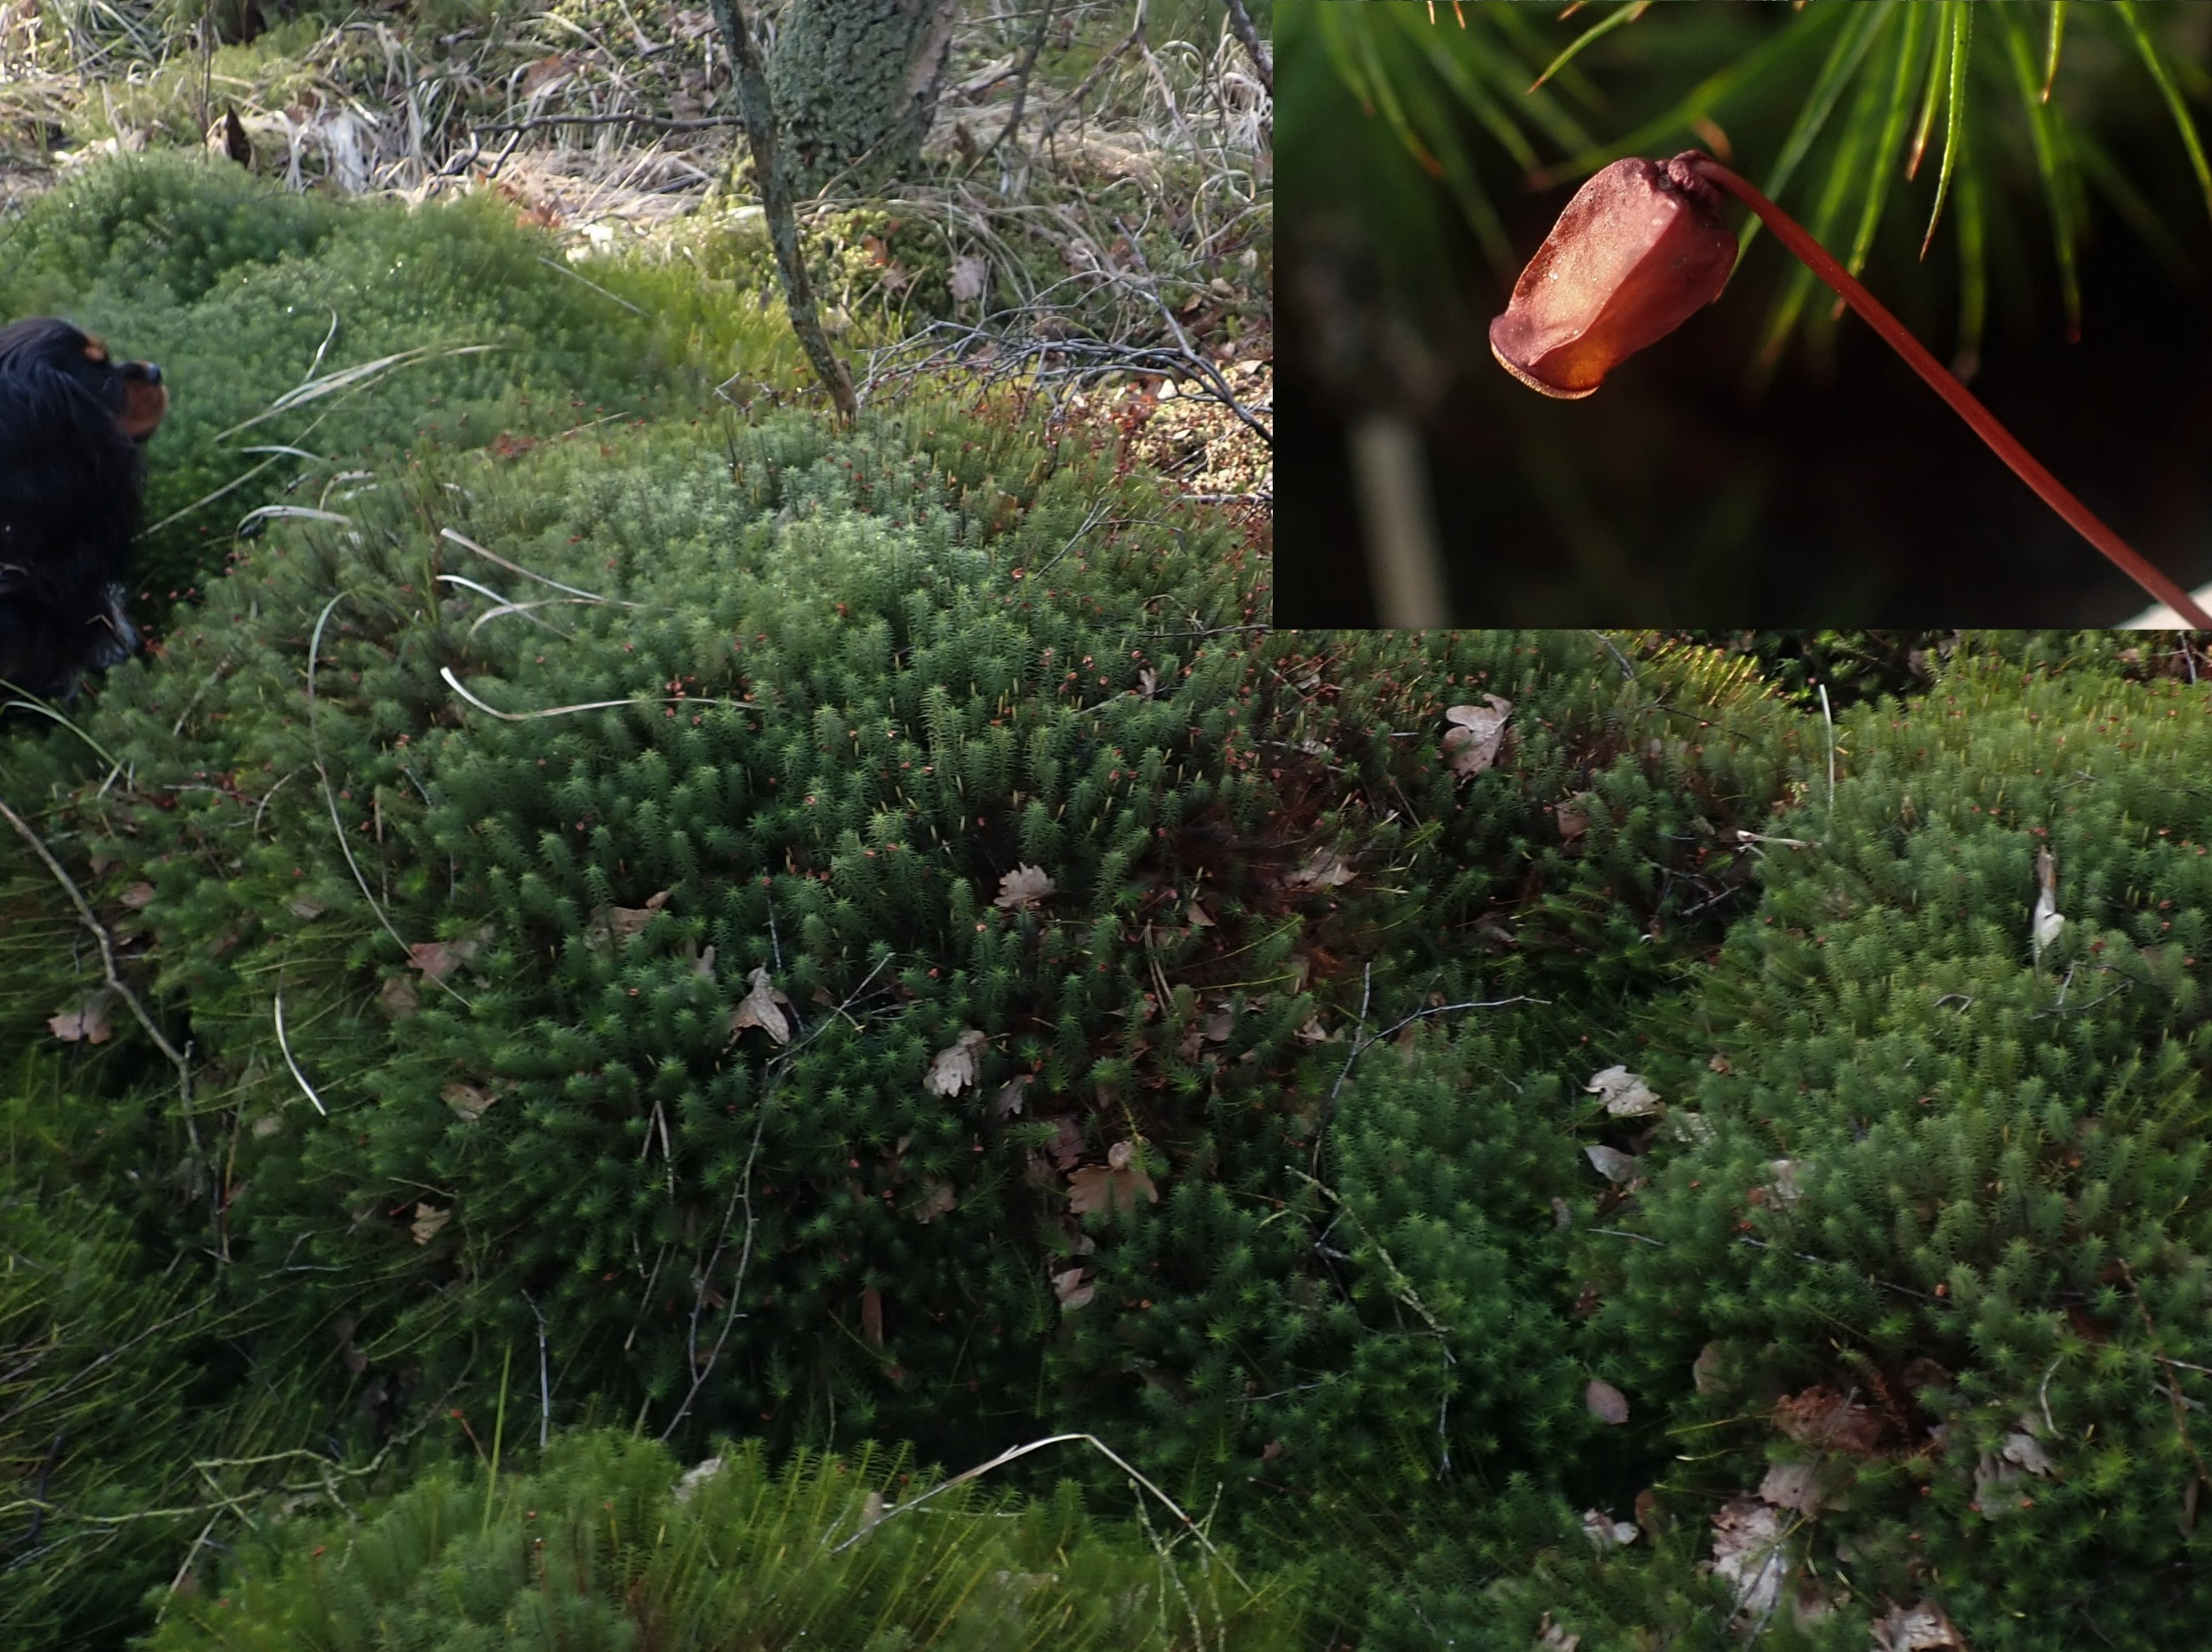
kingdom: Plantae
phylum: Bryophyta
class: Polytrichopsida
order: Polytrichales
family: Polytrichaceae
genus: Polytrichum
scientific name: Polytrichum commune
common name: Almindelig jomfruhår
